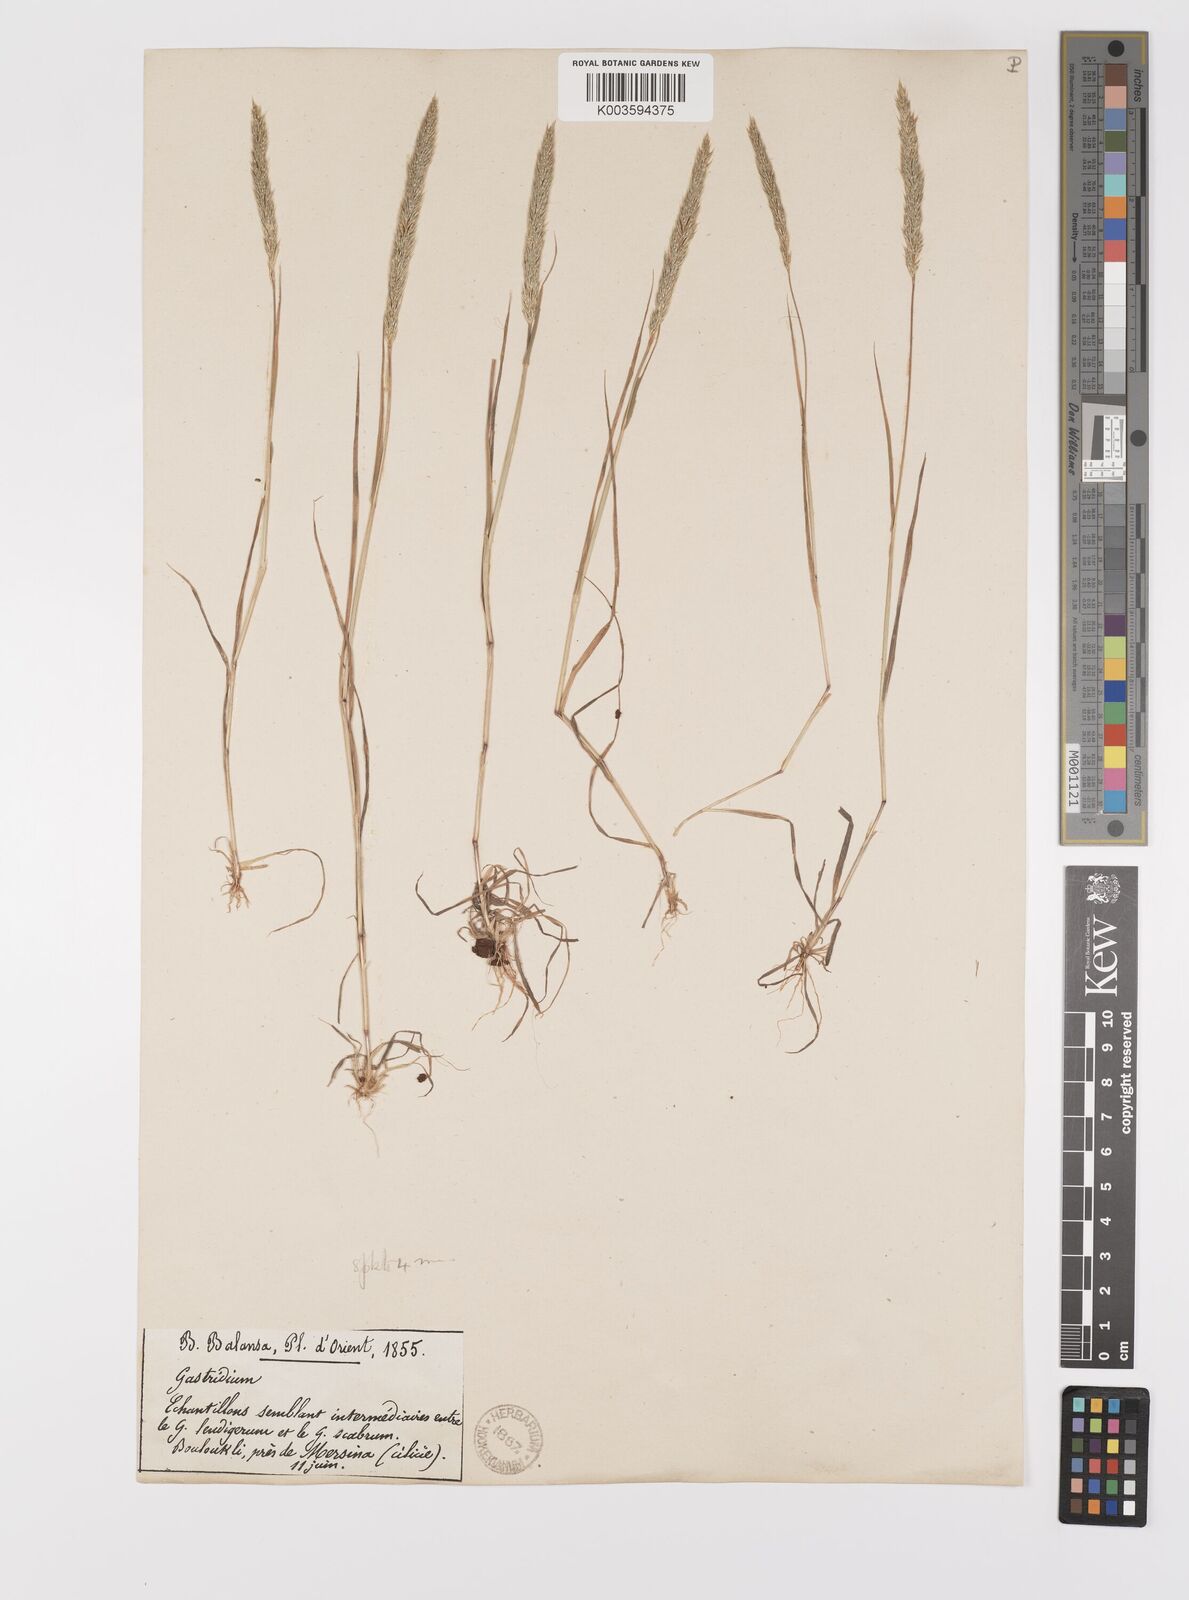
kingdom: Plantae
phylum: Tracheophyta
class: Liliopsida
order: Poales
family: Poaceae
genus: Gastridium
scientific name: Gastridium phleoides
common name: Nit grass
